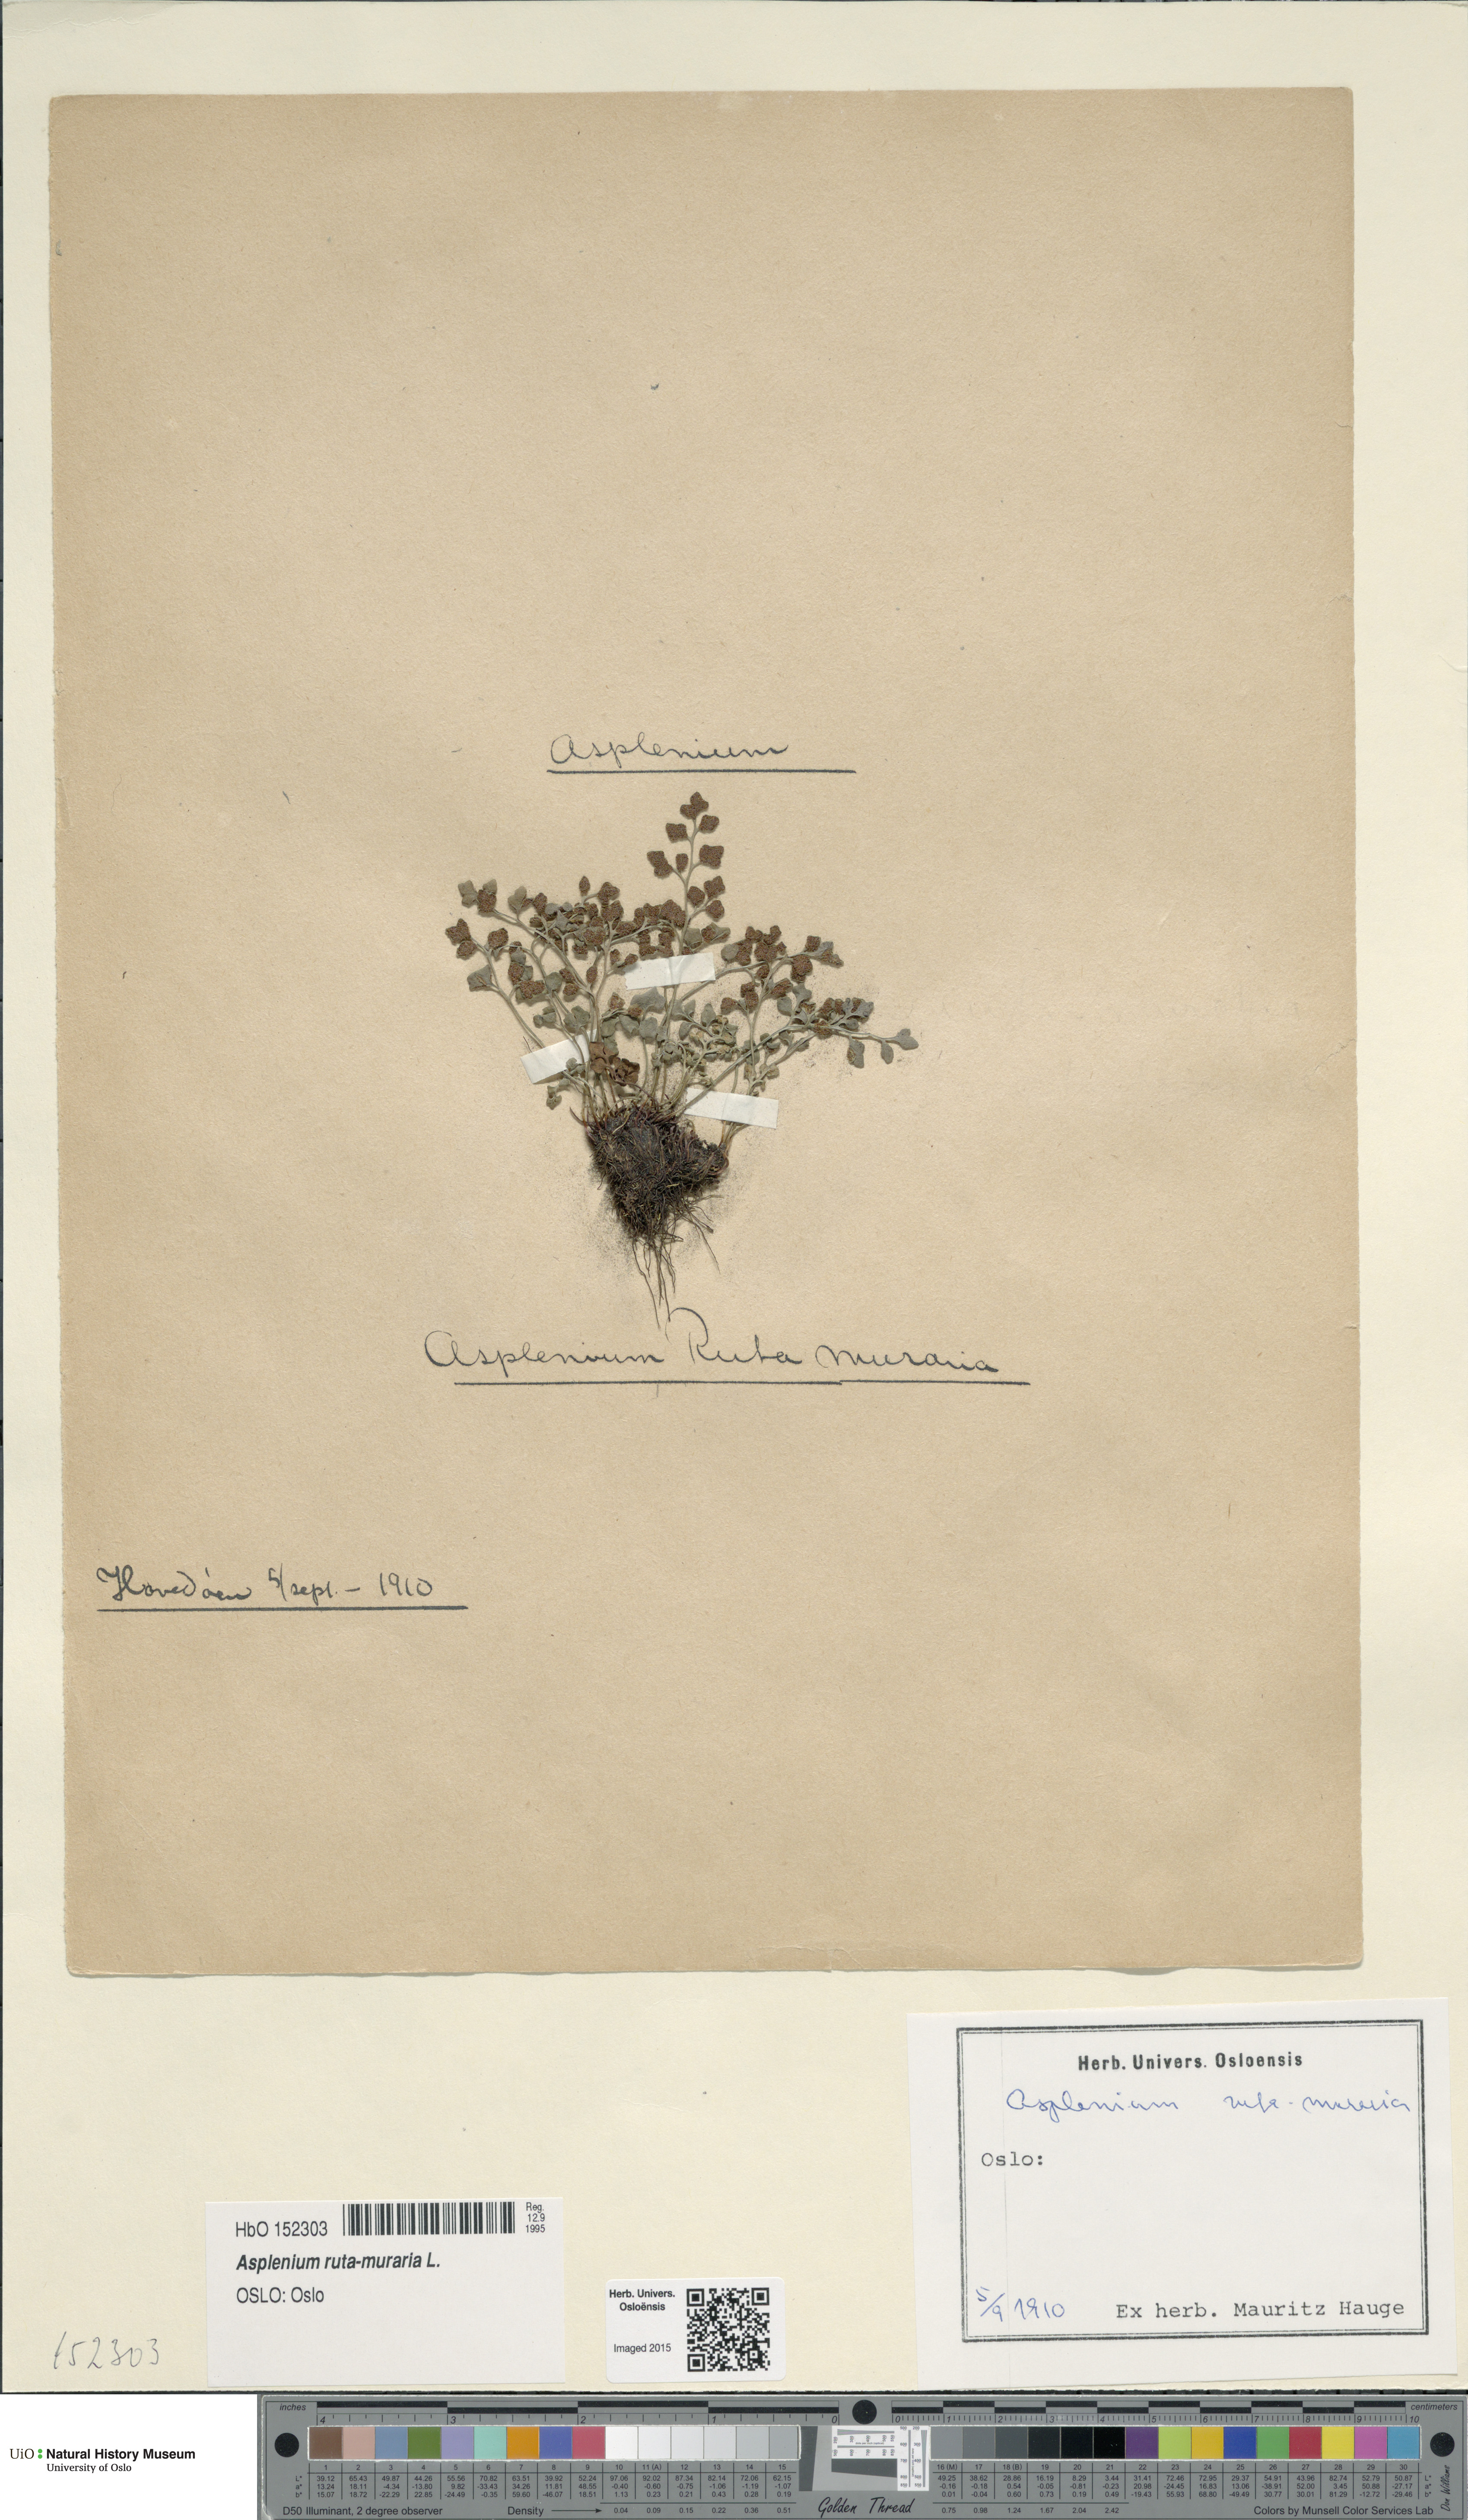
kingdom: Plantae
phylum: Tracheophyta
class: Polypodiopsida
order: Polypodiales
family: Aspleniaceae
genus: Asplenium
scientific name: Asplenium ruta-muraria
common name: Wall-rue
